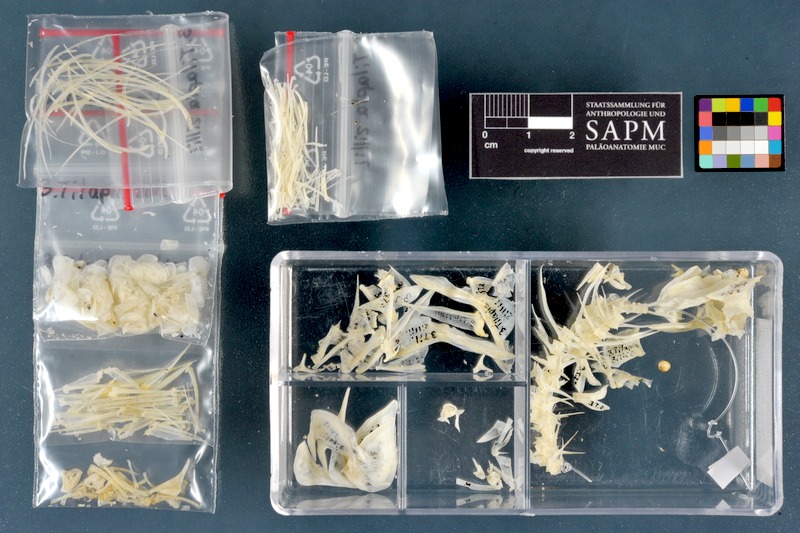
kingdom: Animalia
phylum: Chordata
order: Perciformes
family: Cichlidae
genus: Coptodon
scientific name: Coptodon zillii
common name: Redbelly tilapia
